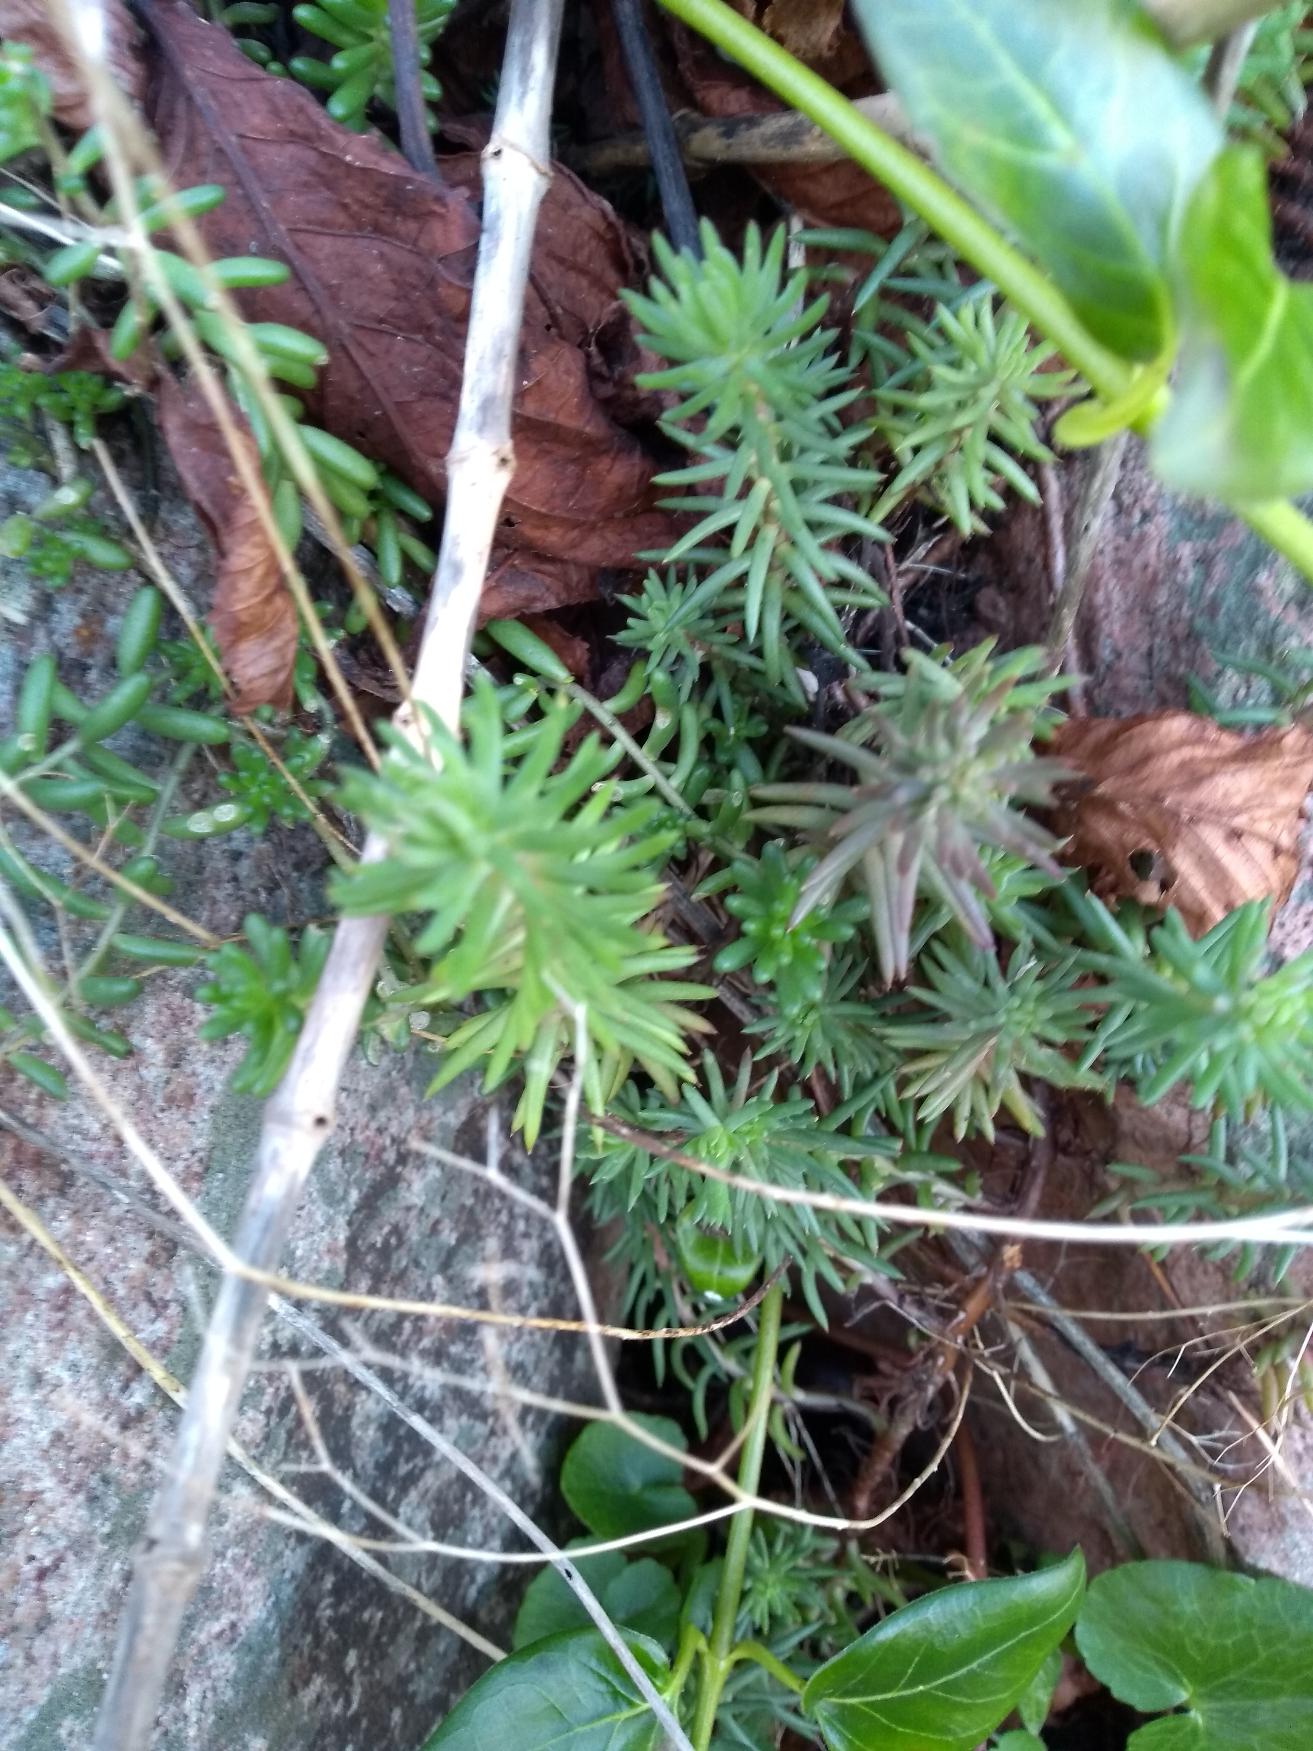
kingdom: Plantae
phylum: Tracheophyta
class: Magnoliopsida
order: Saxifragales
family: Crassulaceae
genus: Sedum
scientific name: Sedum album
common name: Hvid stenurt
